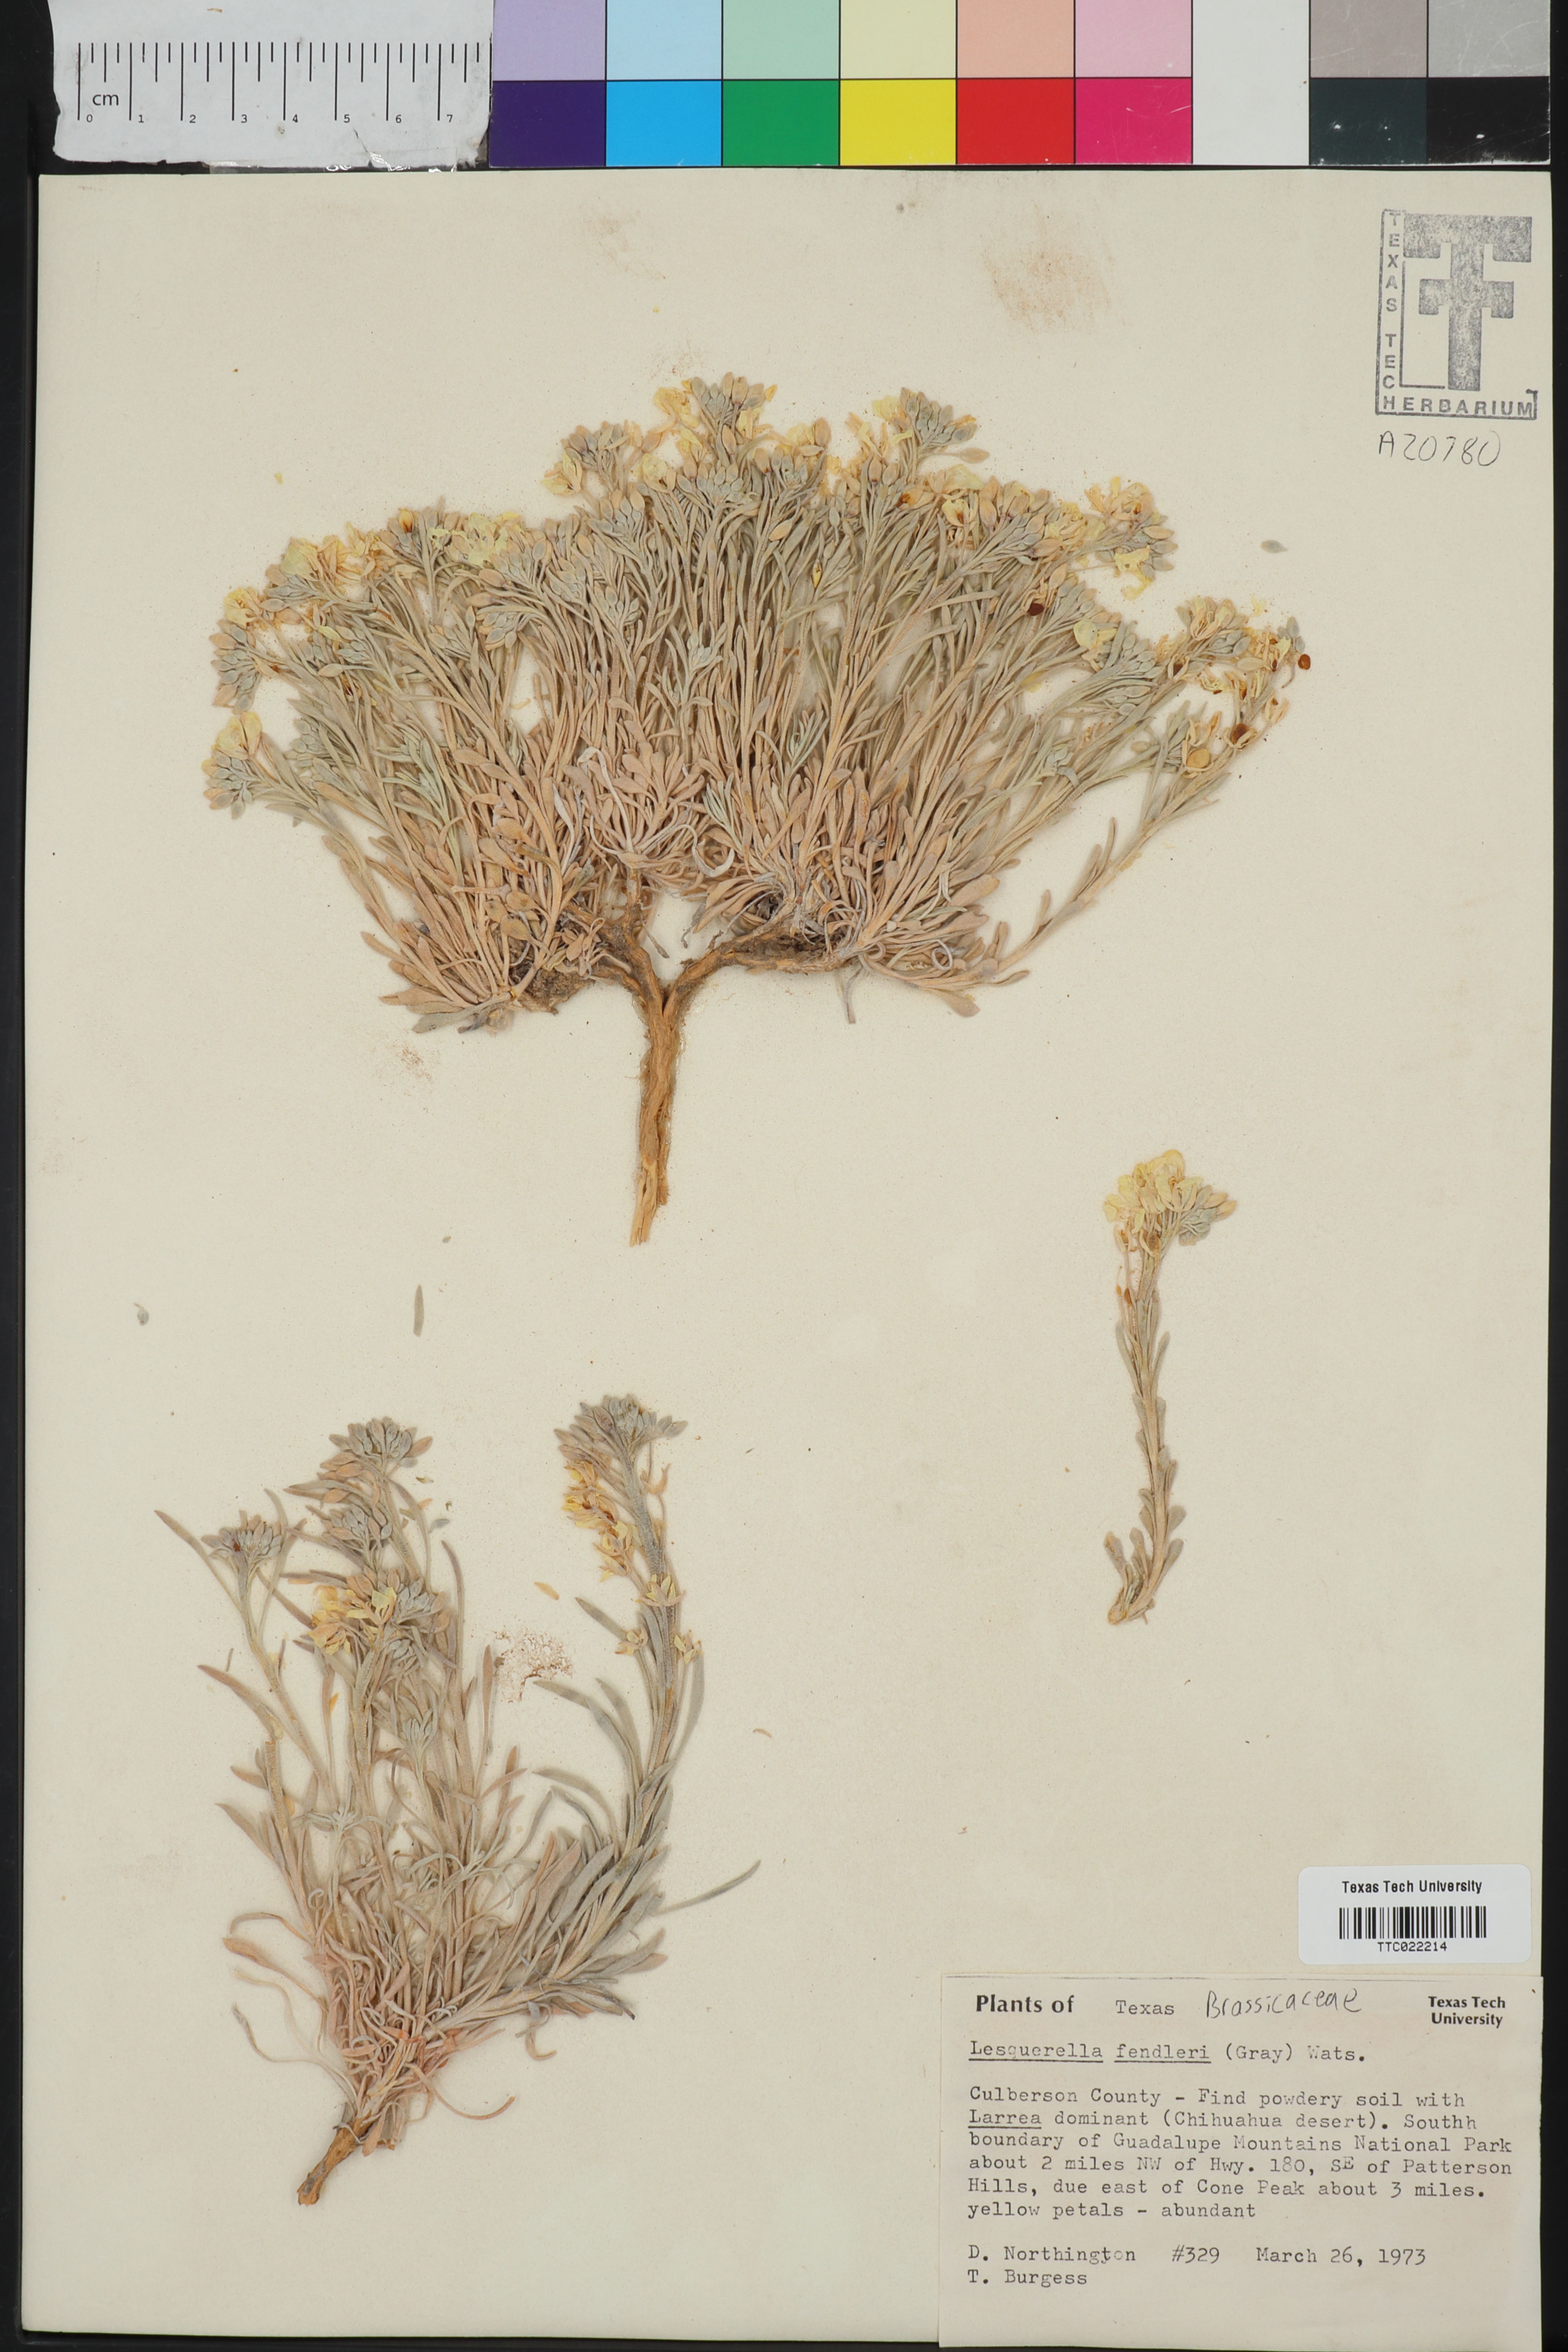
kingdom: Plantae
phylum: Tracheophyta
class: Magnoliopsida
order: Brassicales
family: Brassicaceae
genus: Physaria
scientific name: Physaria fendleri
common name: Fendler's bladderpod
